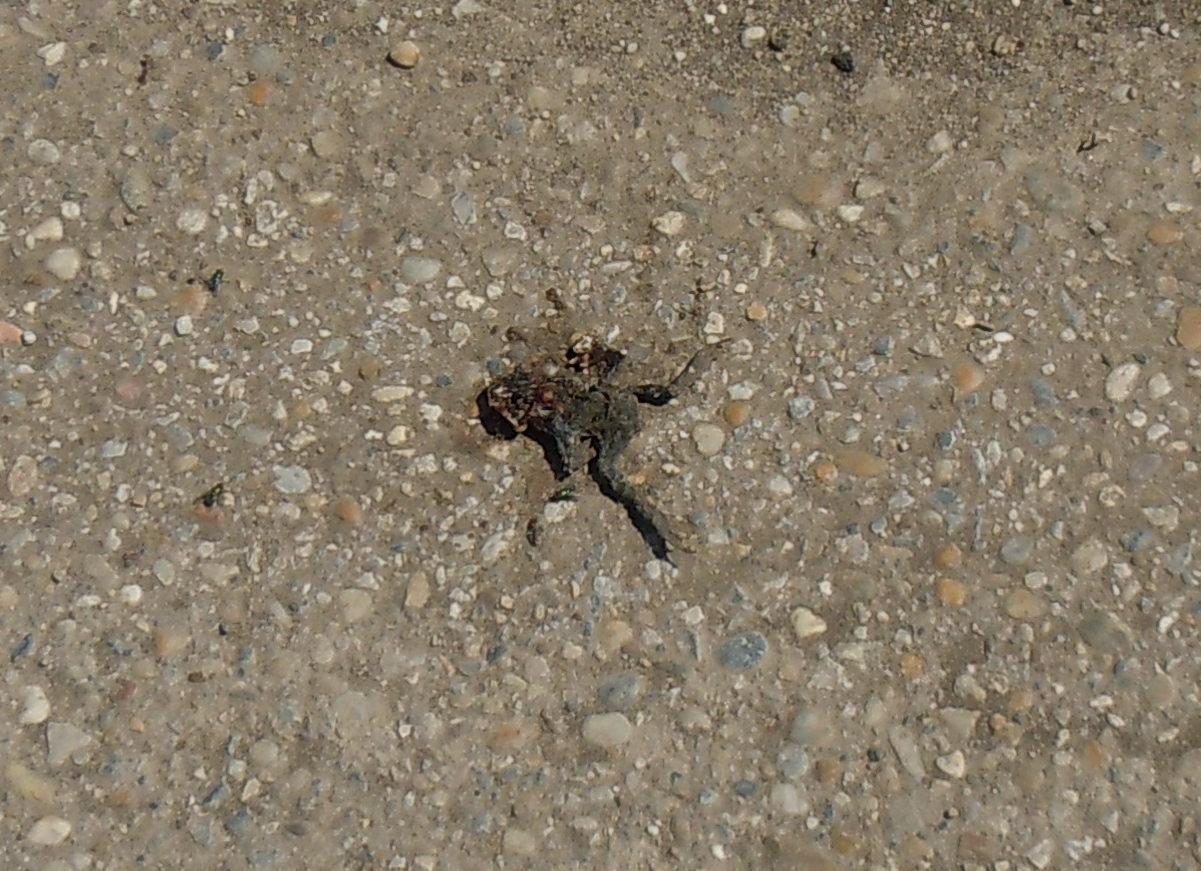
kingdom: Animalia
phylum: Chordata
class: Amphibia
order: Anura
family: Bufonidae
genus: Bufotes
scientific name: Bufotes viridis
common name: European green toad
